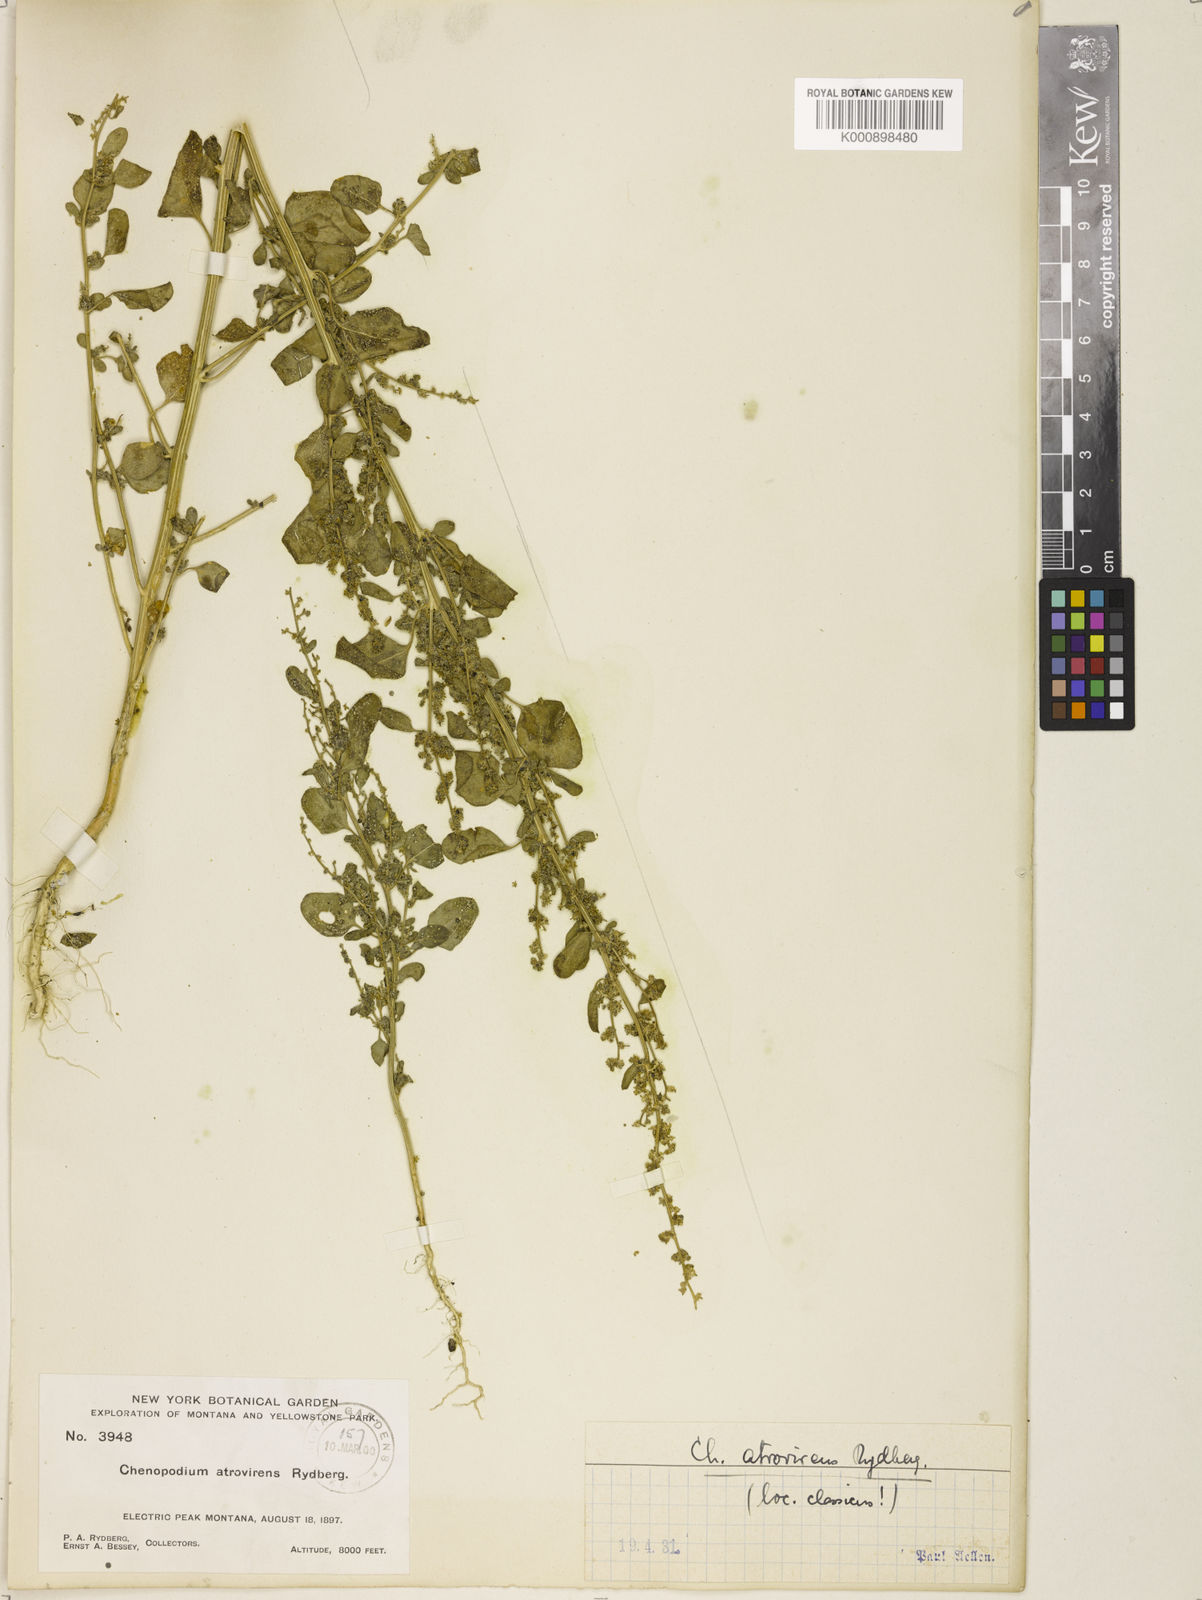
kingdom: Plantae
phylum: Tracheophyta
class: Magnoliopsida
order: Caryophyllales
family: Amaranthaceae
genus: Chenopodium
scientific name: Chenopodium atrovirens
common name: Dark goosefoot
